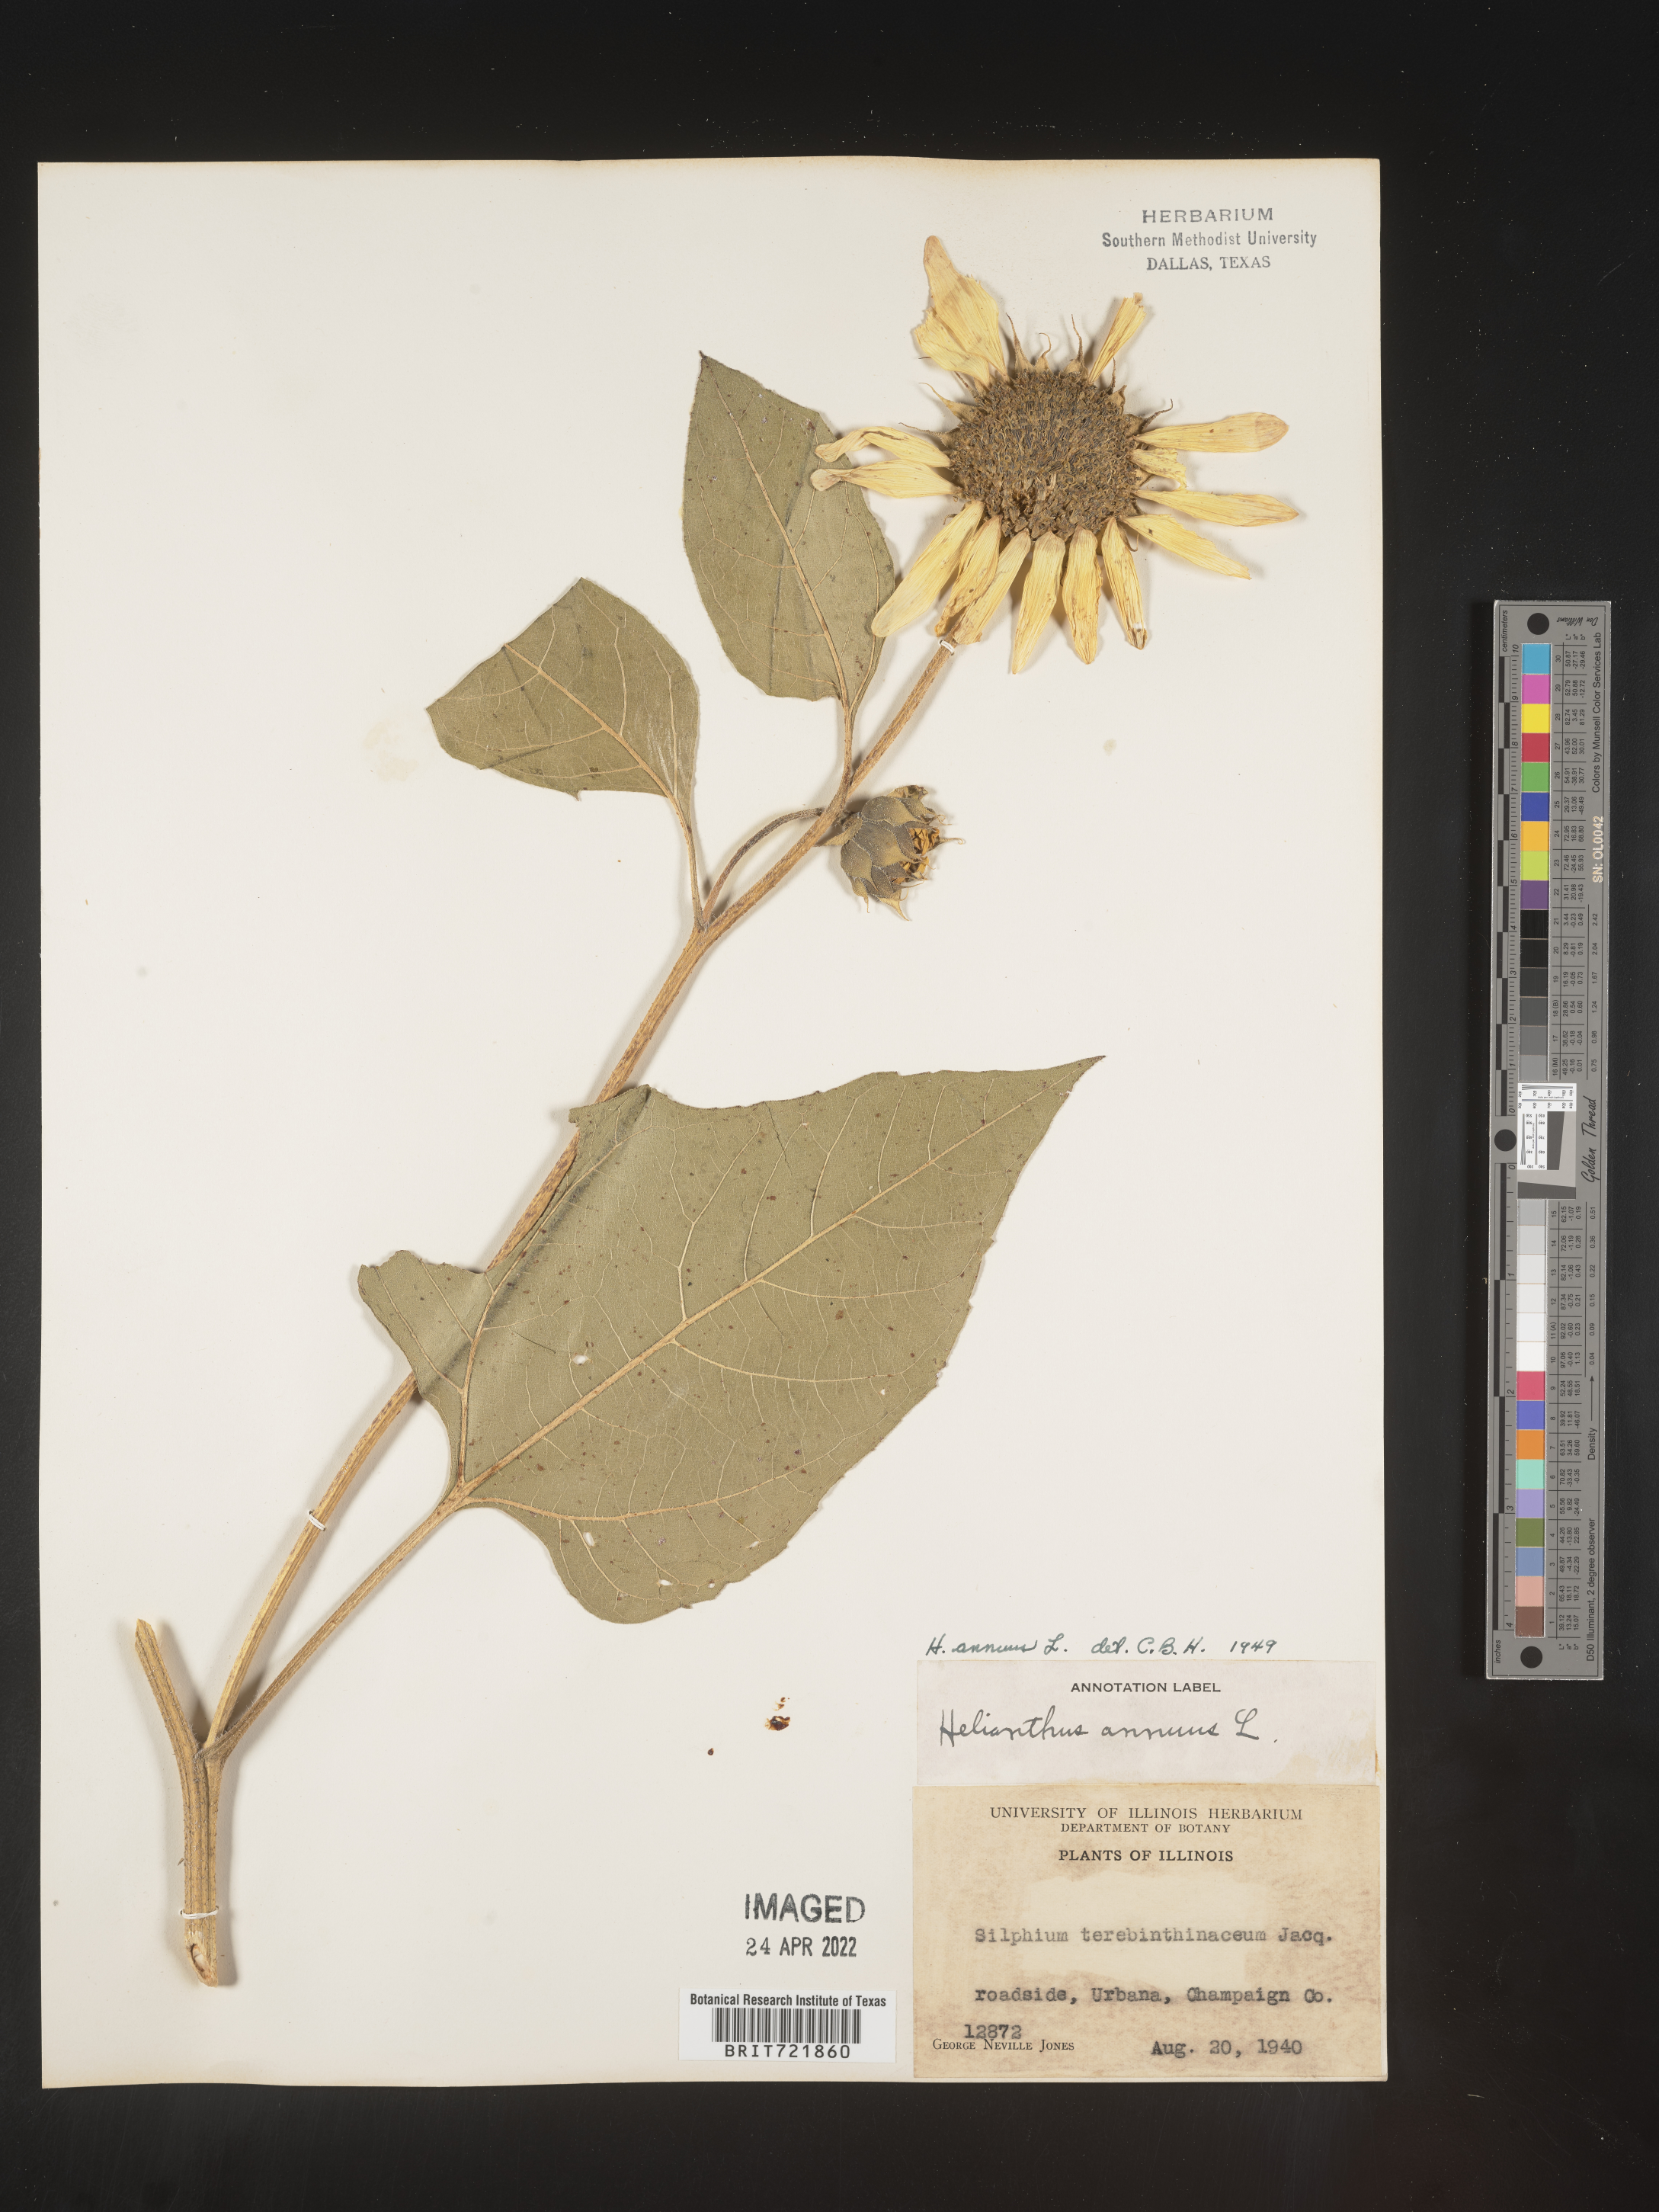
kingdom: Plantae
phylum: Tracheophyta
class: Magnoliopsida
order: Asterales
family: Asteraceae
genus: Helianthus
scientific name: Helianthus annuus
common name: Sunflower
